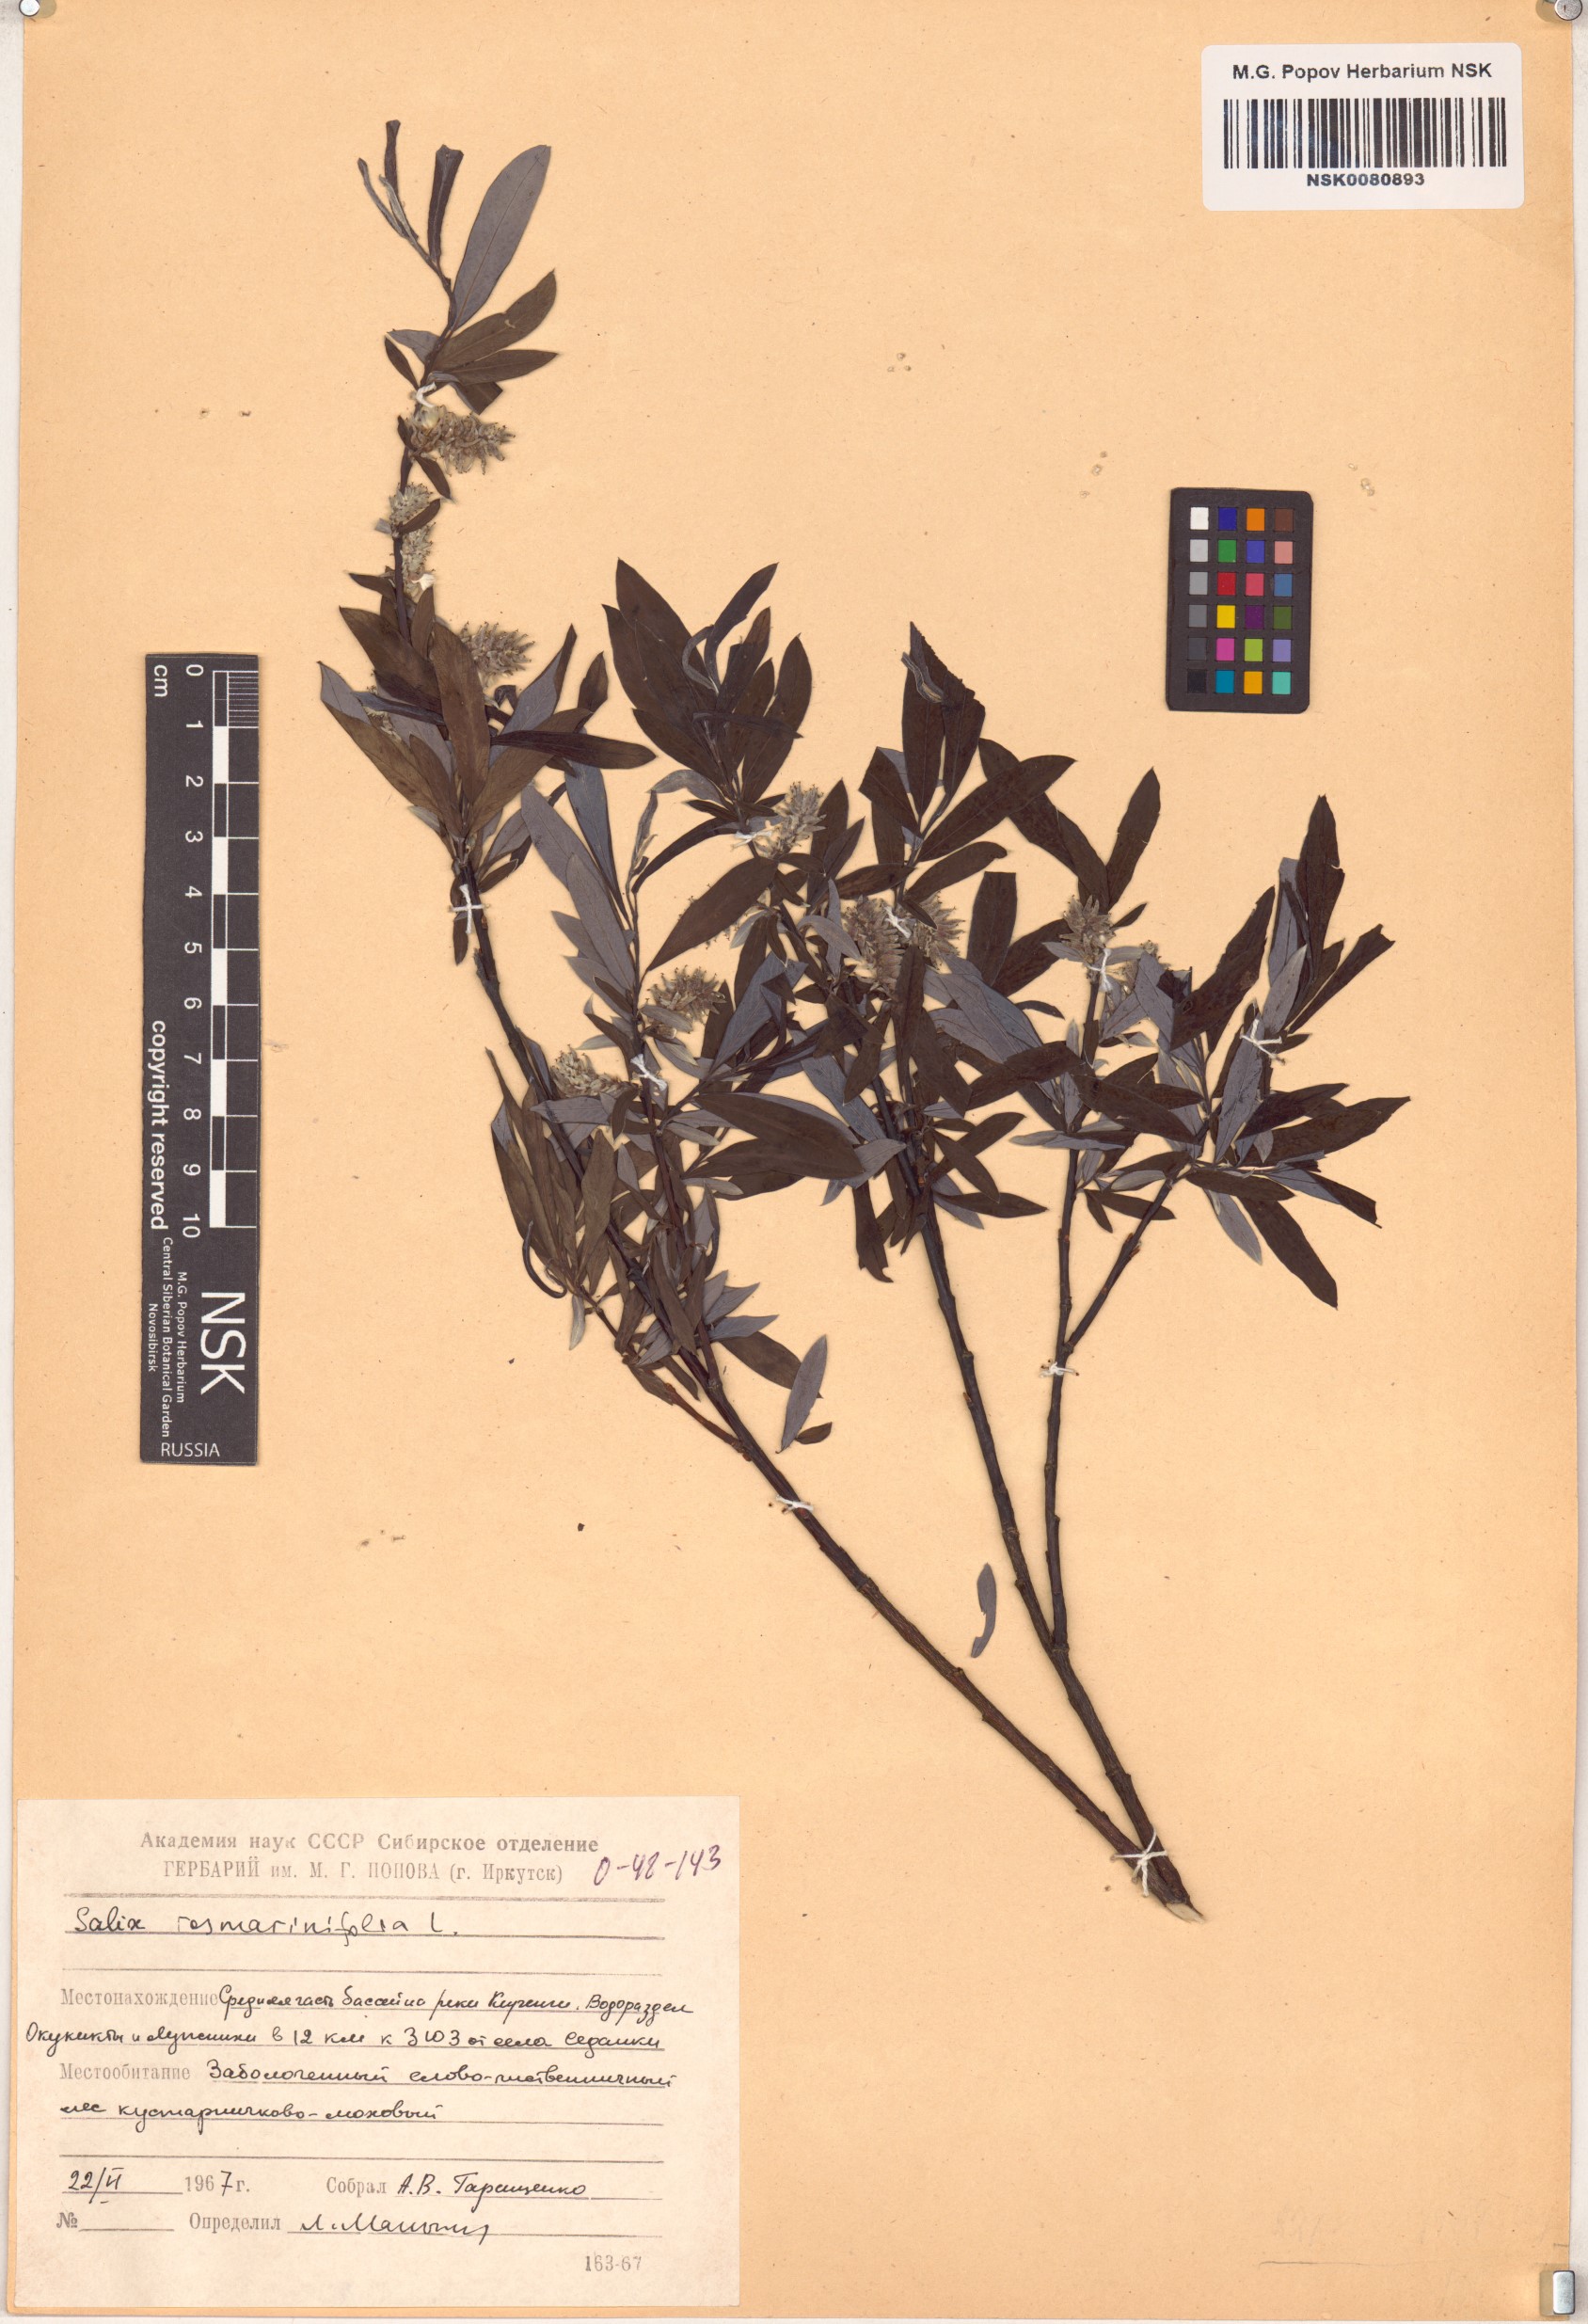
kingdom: Plantae
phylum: Tracheophyta
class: Magnoliopsida
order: Malpighiales
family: Salicaceae
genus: Salix
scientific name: Salix rosmarinifolia
